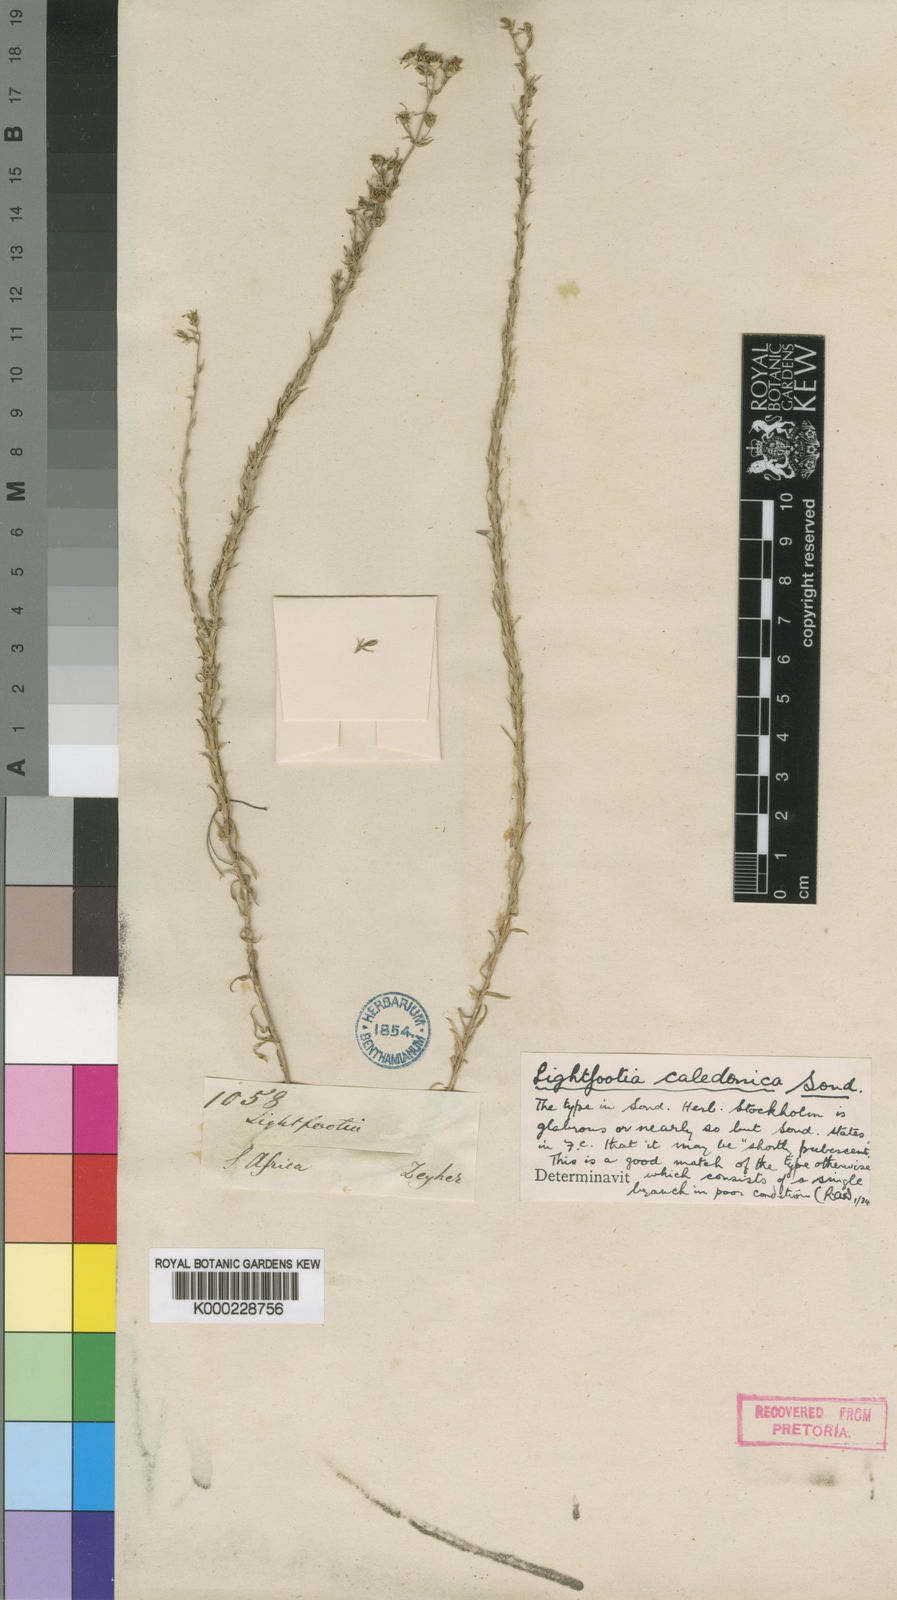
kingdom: Plantae
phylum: Tracheophyta
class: Magnoliopsida
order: Asterales
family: Campanulaceae
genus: Wahlenbergia
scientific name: Wahlenbergia dieterlenii
